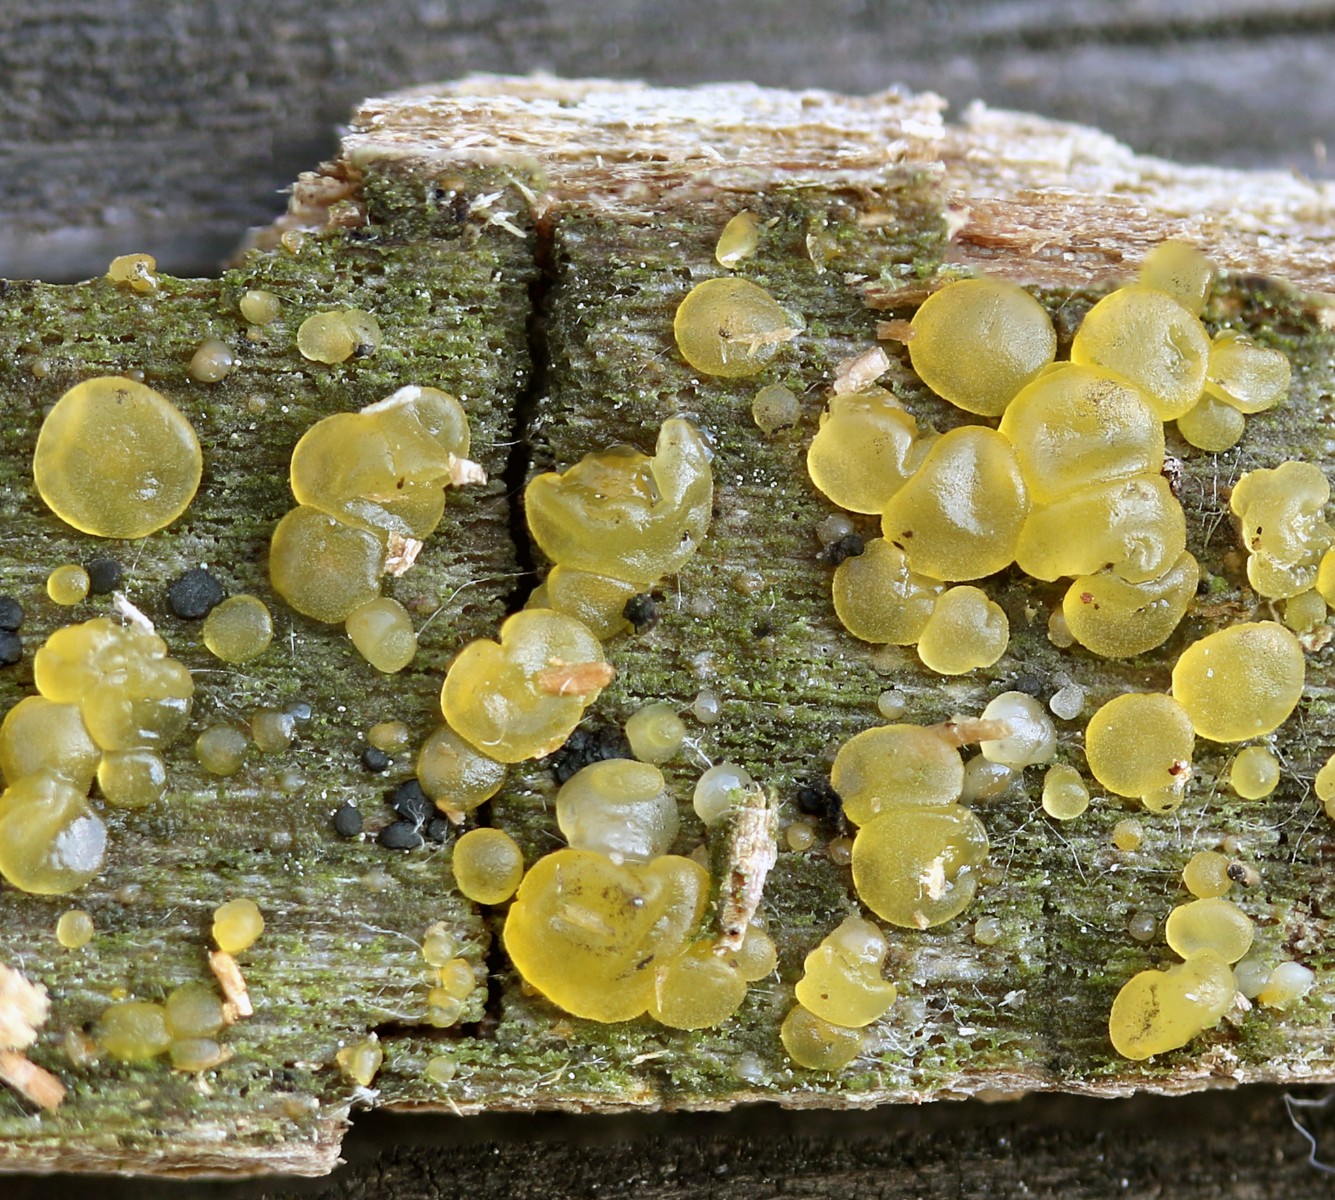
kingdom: Fungi
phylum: Basidiomycota
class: Dacrymycetes
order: Dacrymycetales
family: Dacrymycetaceae
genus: Dacrymyces
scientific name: Dacrymyces lacrymalis
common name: rynket tåresvamp
